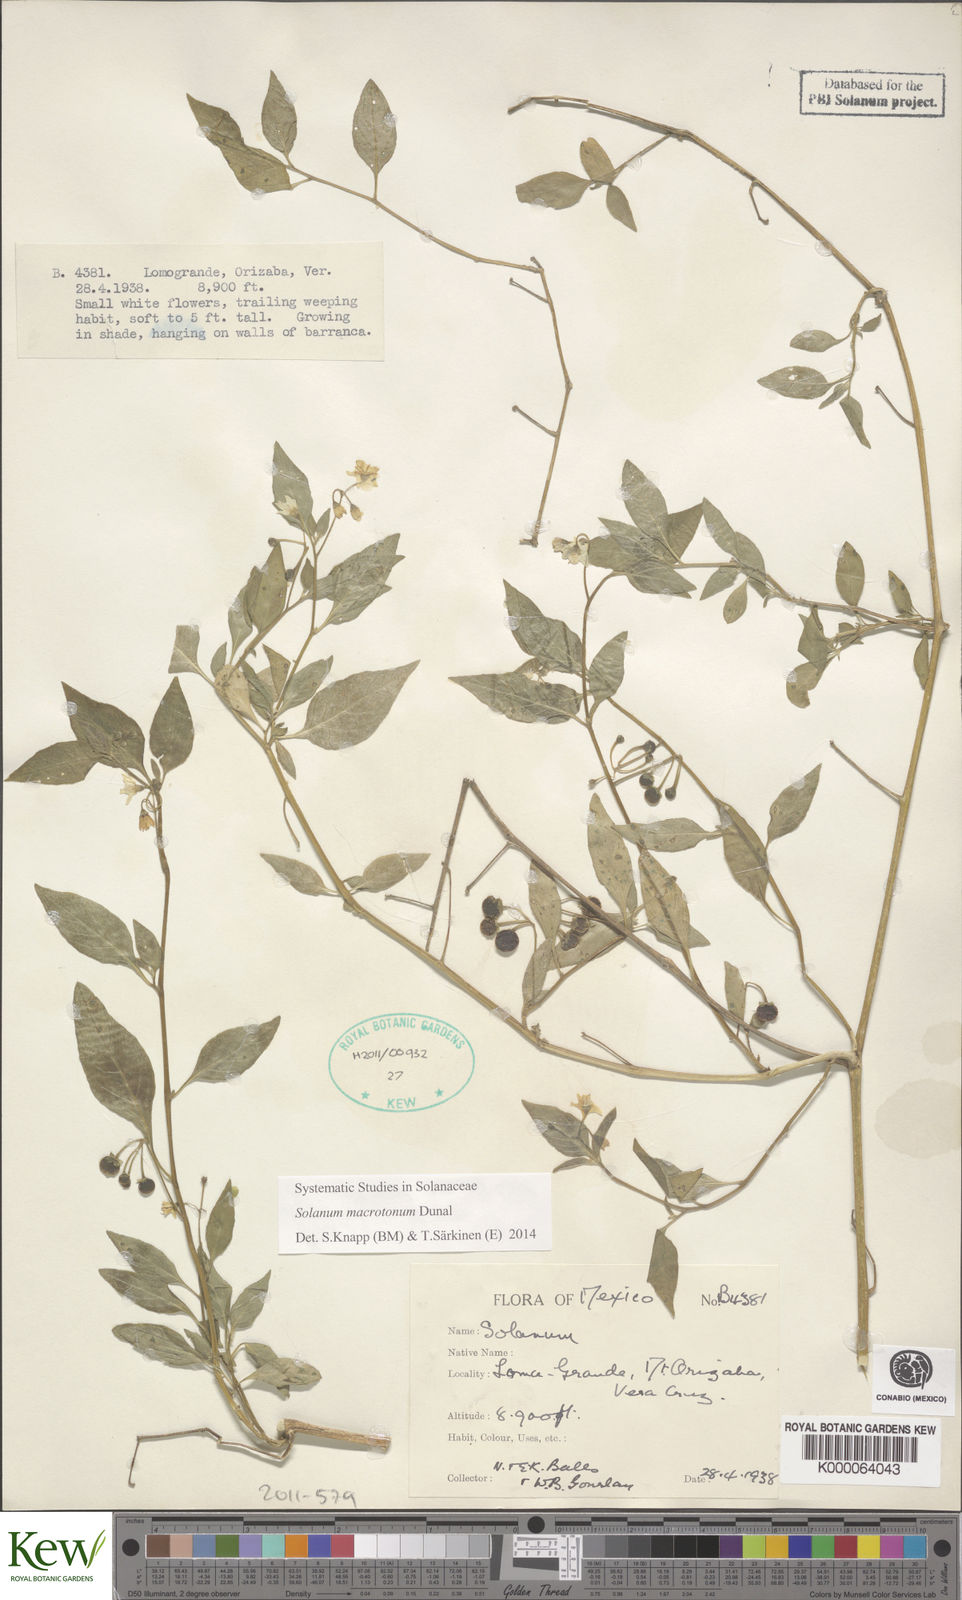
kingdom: Plantae
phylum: Tracheophyta
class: Magnoliopsida
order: Solanales
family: Solanaceae
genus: Solanum
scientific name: Solanum
